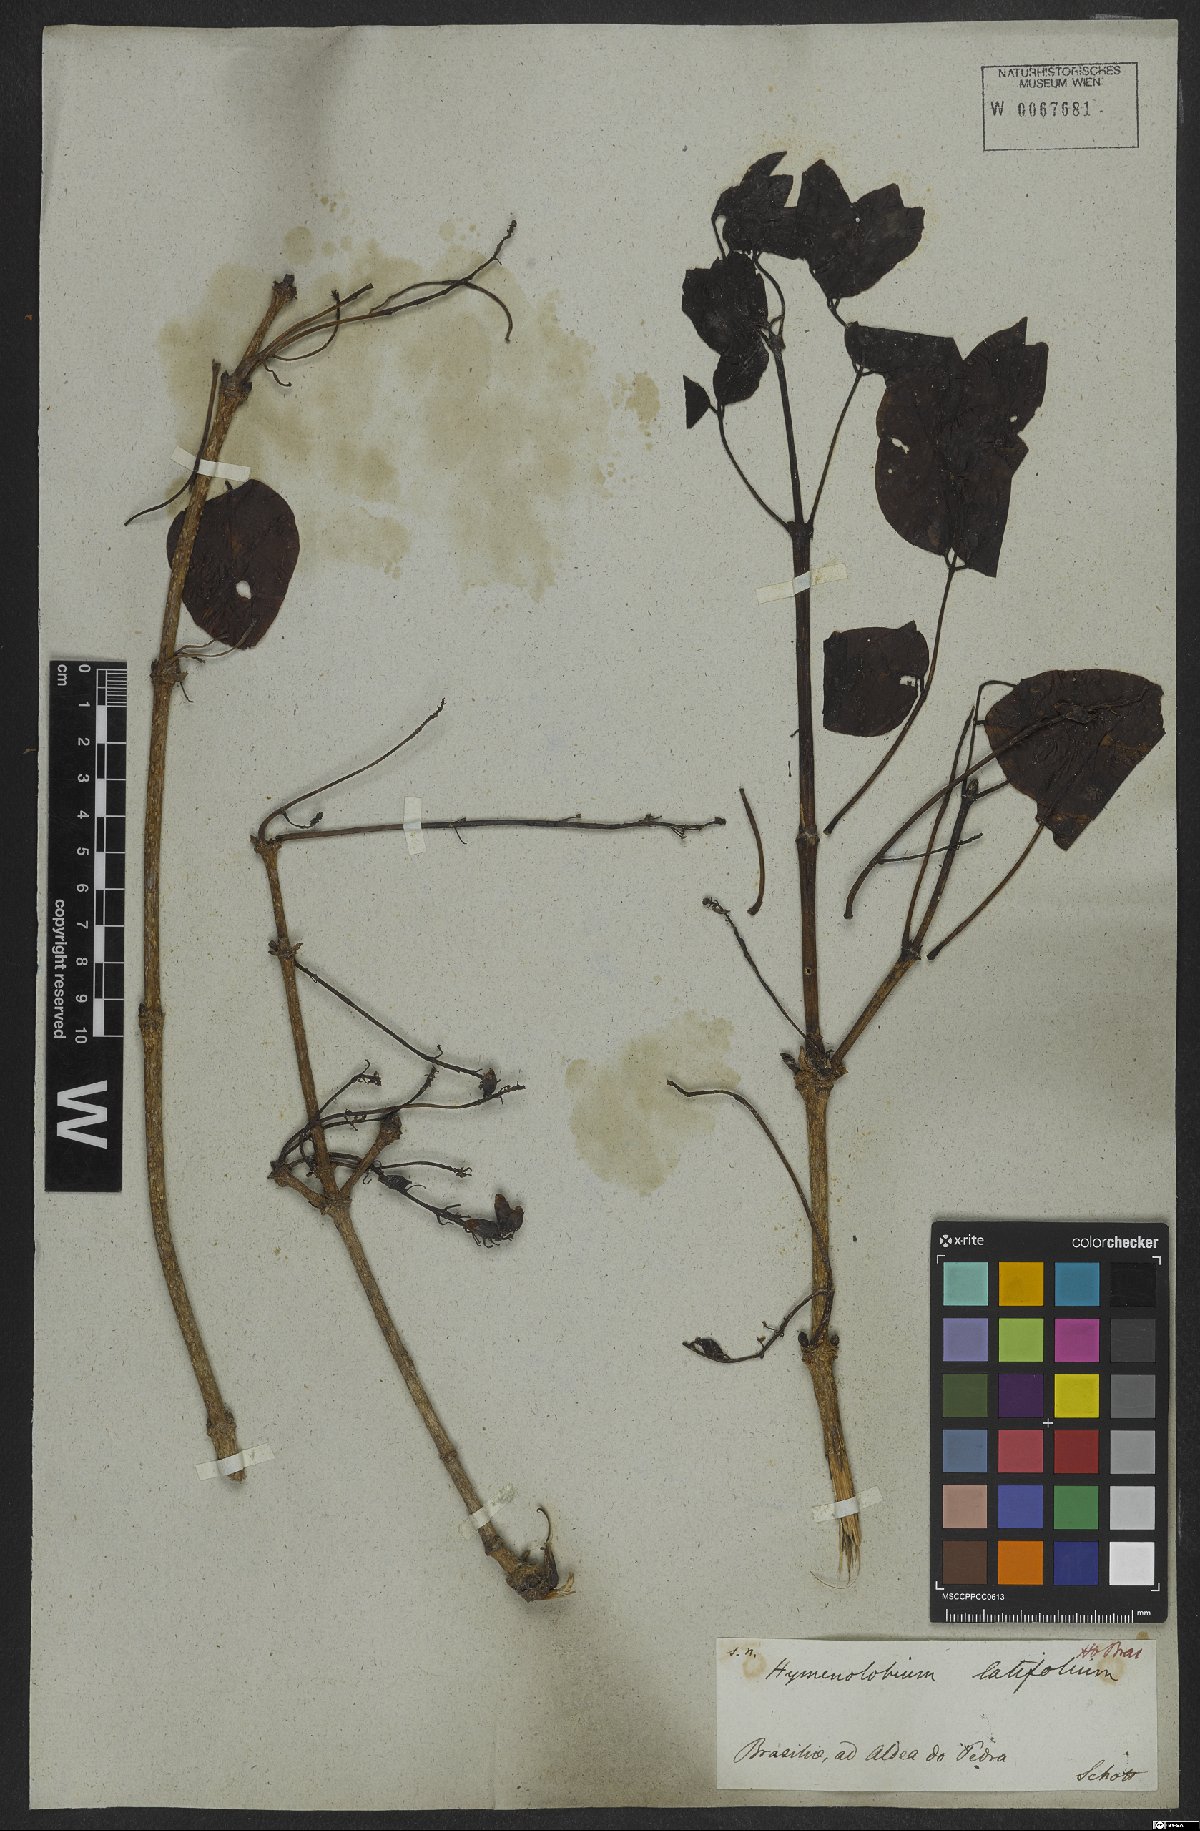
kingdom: Plantae
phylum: Tracheophyta
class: Magnoliopsida
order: Fabales
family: Fabaceae
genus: Hymenolobium
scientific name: Hymenolobium
